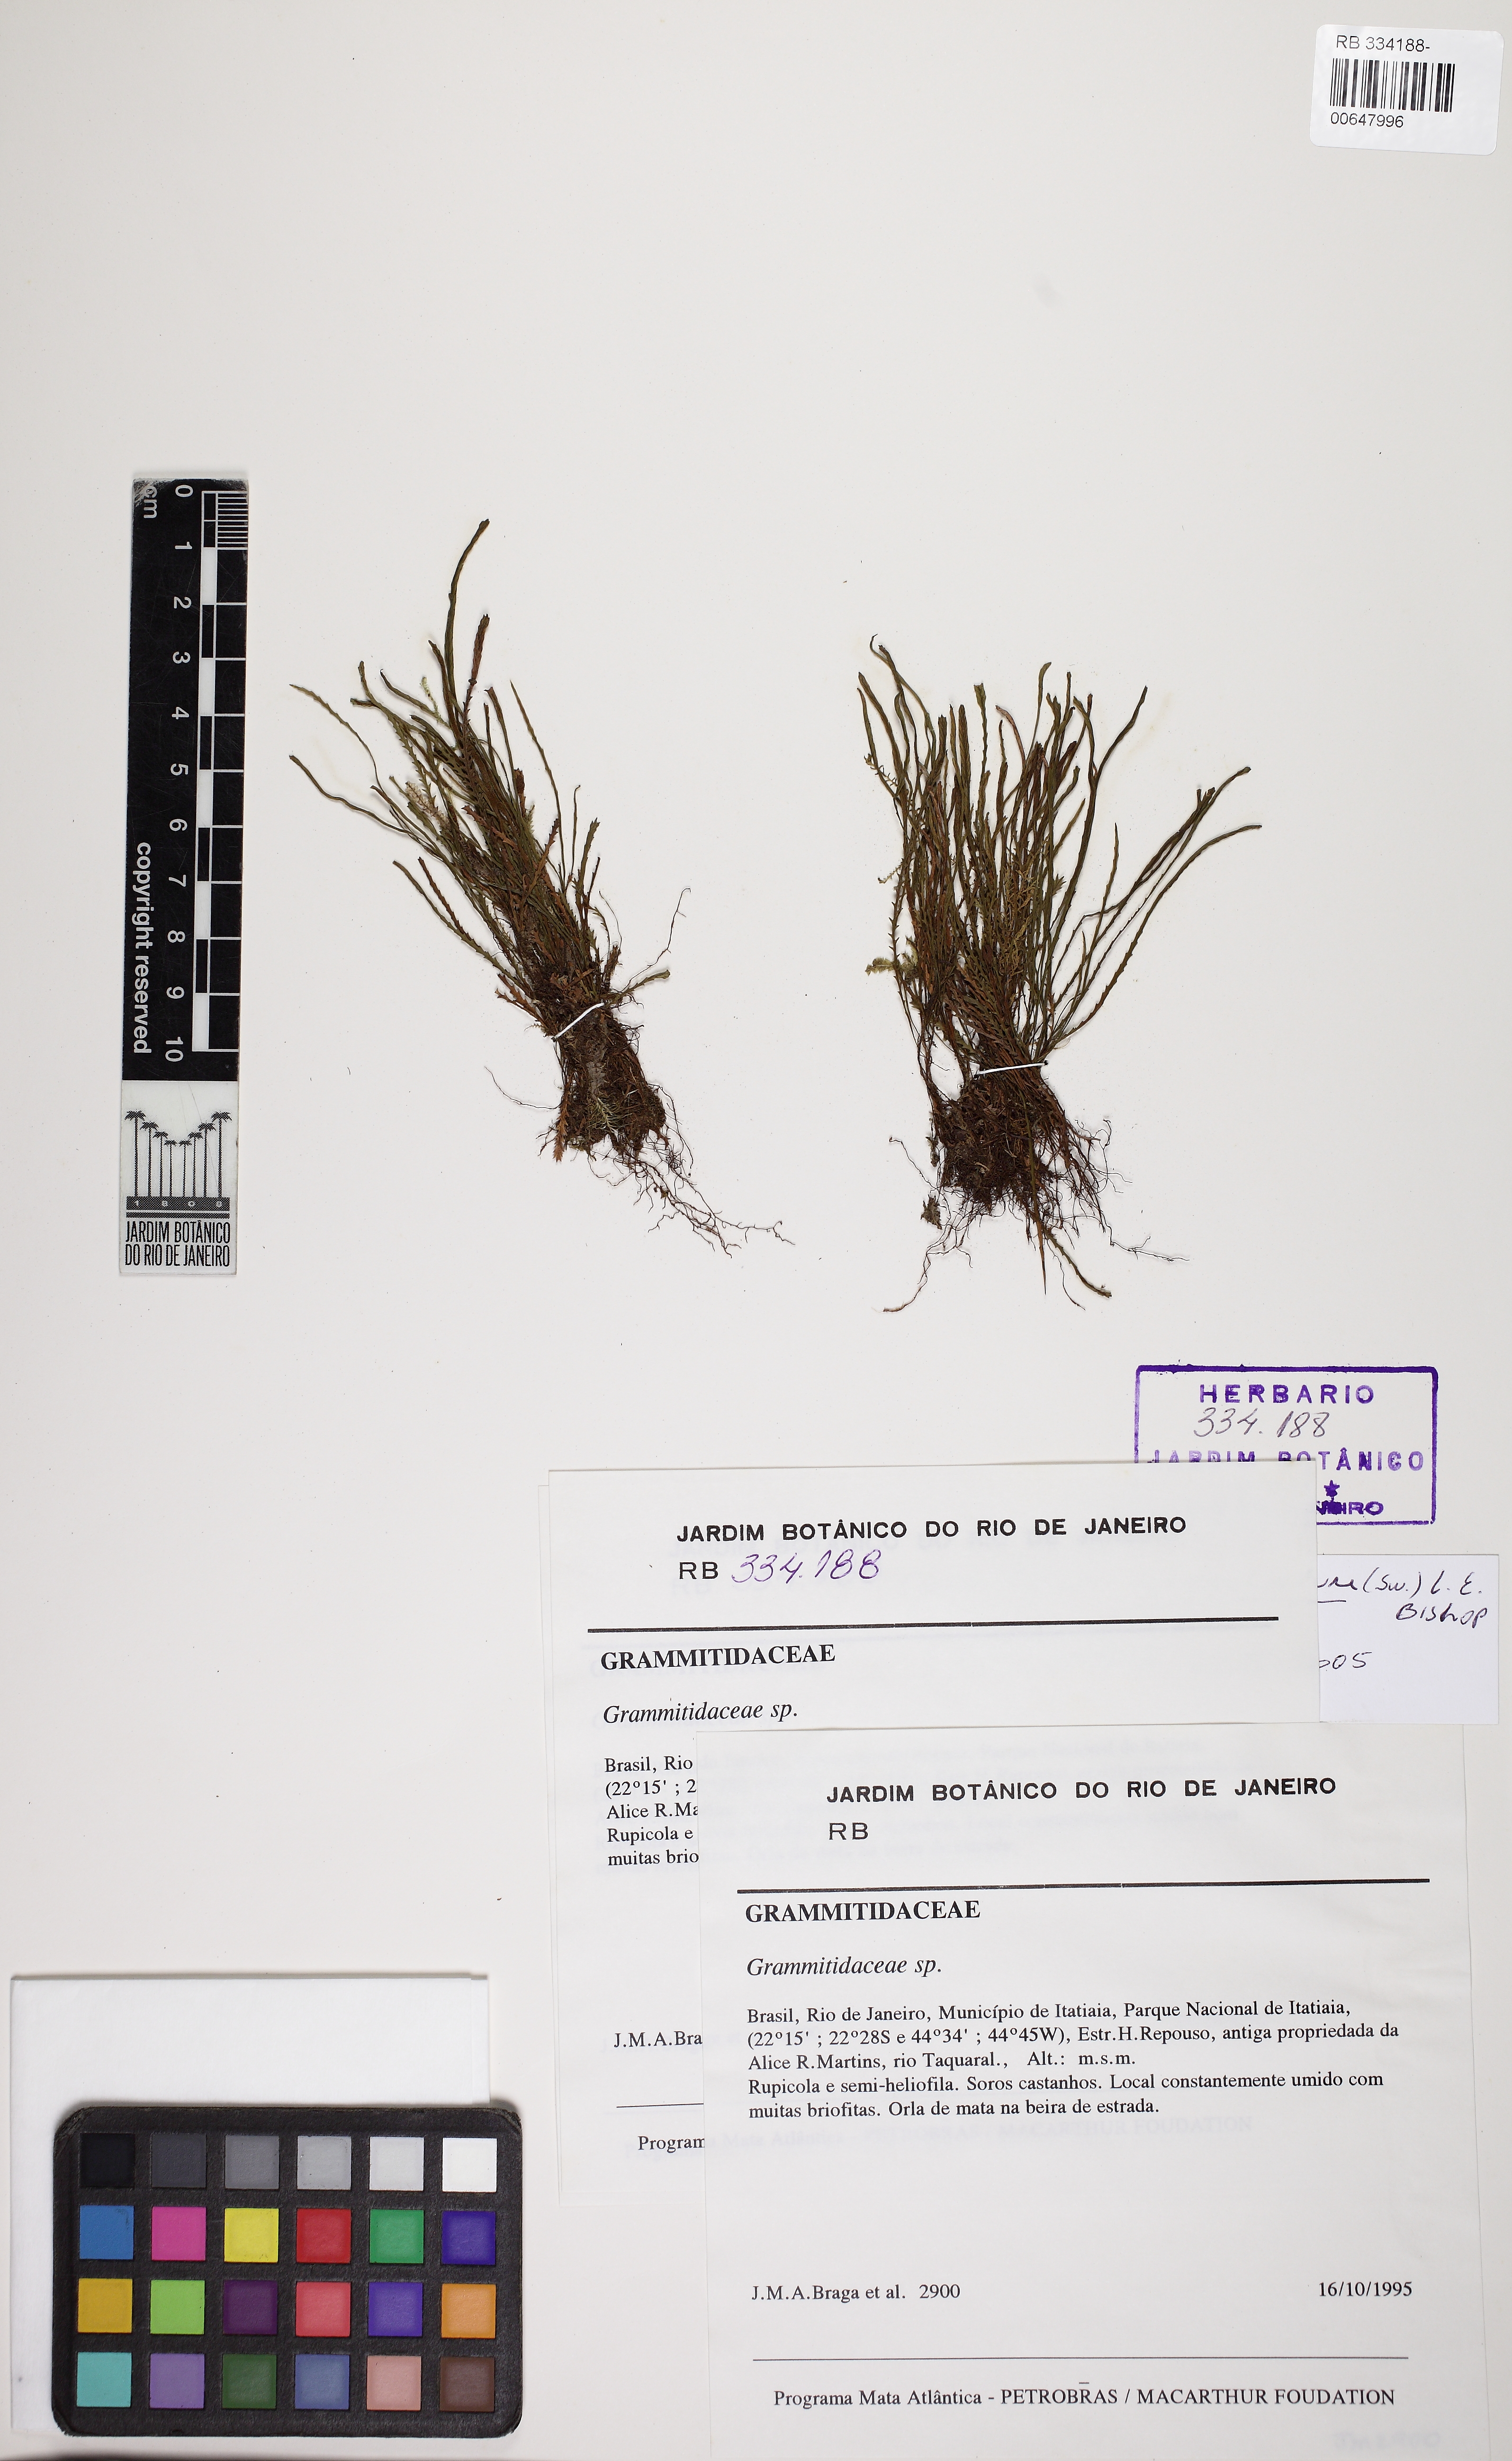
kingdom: Plantae
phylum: Tracheophyta
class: Polypodiopsida
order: Polypodiales
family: Polypodiaceae
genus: Cochlidium
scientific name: Cochlidium serrulatum
